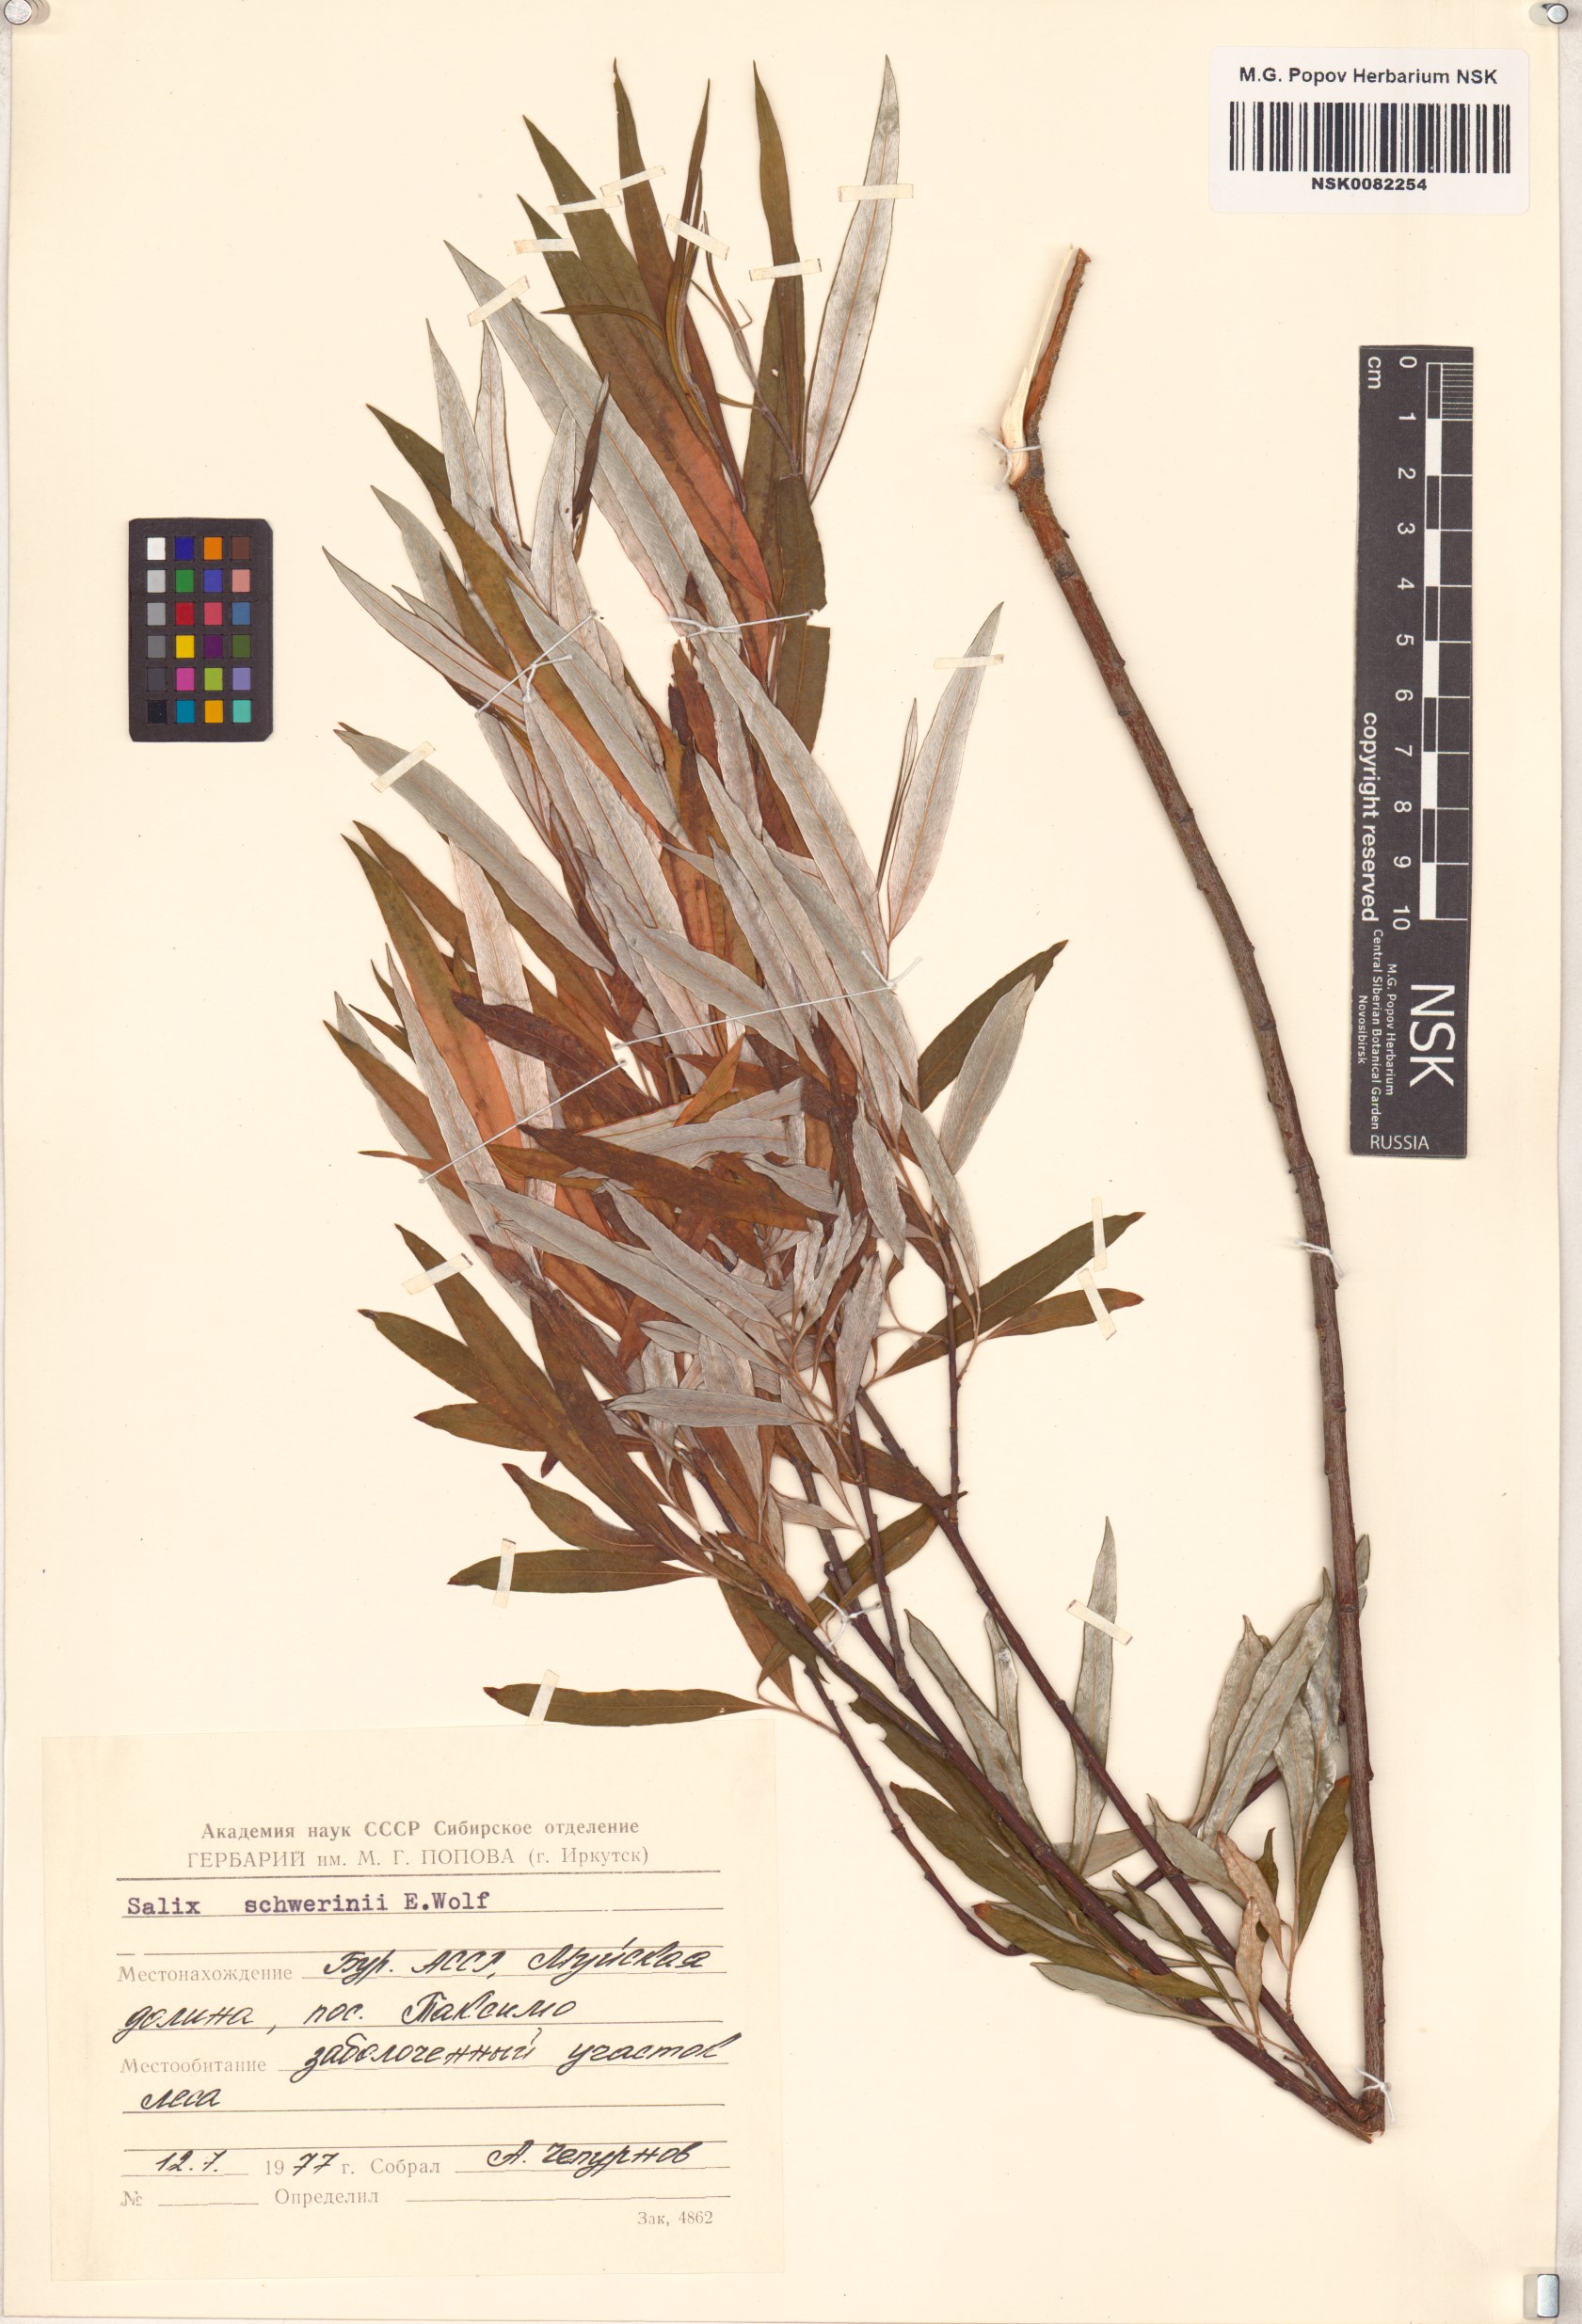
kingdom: Plantae
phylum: Tracheophyta
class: Magnoliopsida
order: Malpighiales
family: Salicaceae
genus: Salix
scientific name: Salix schwerinii
